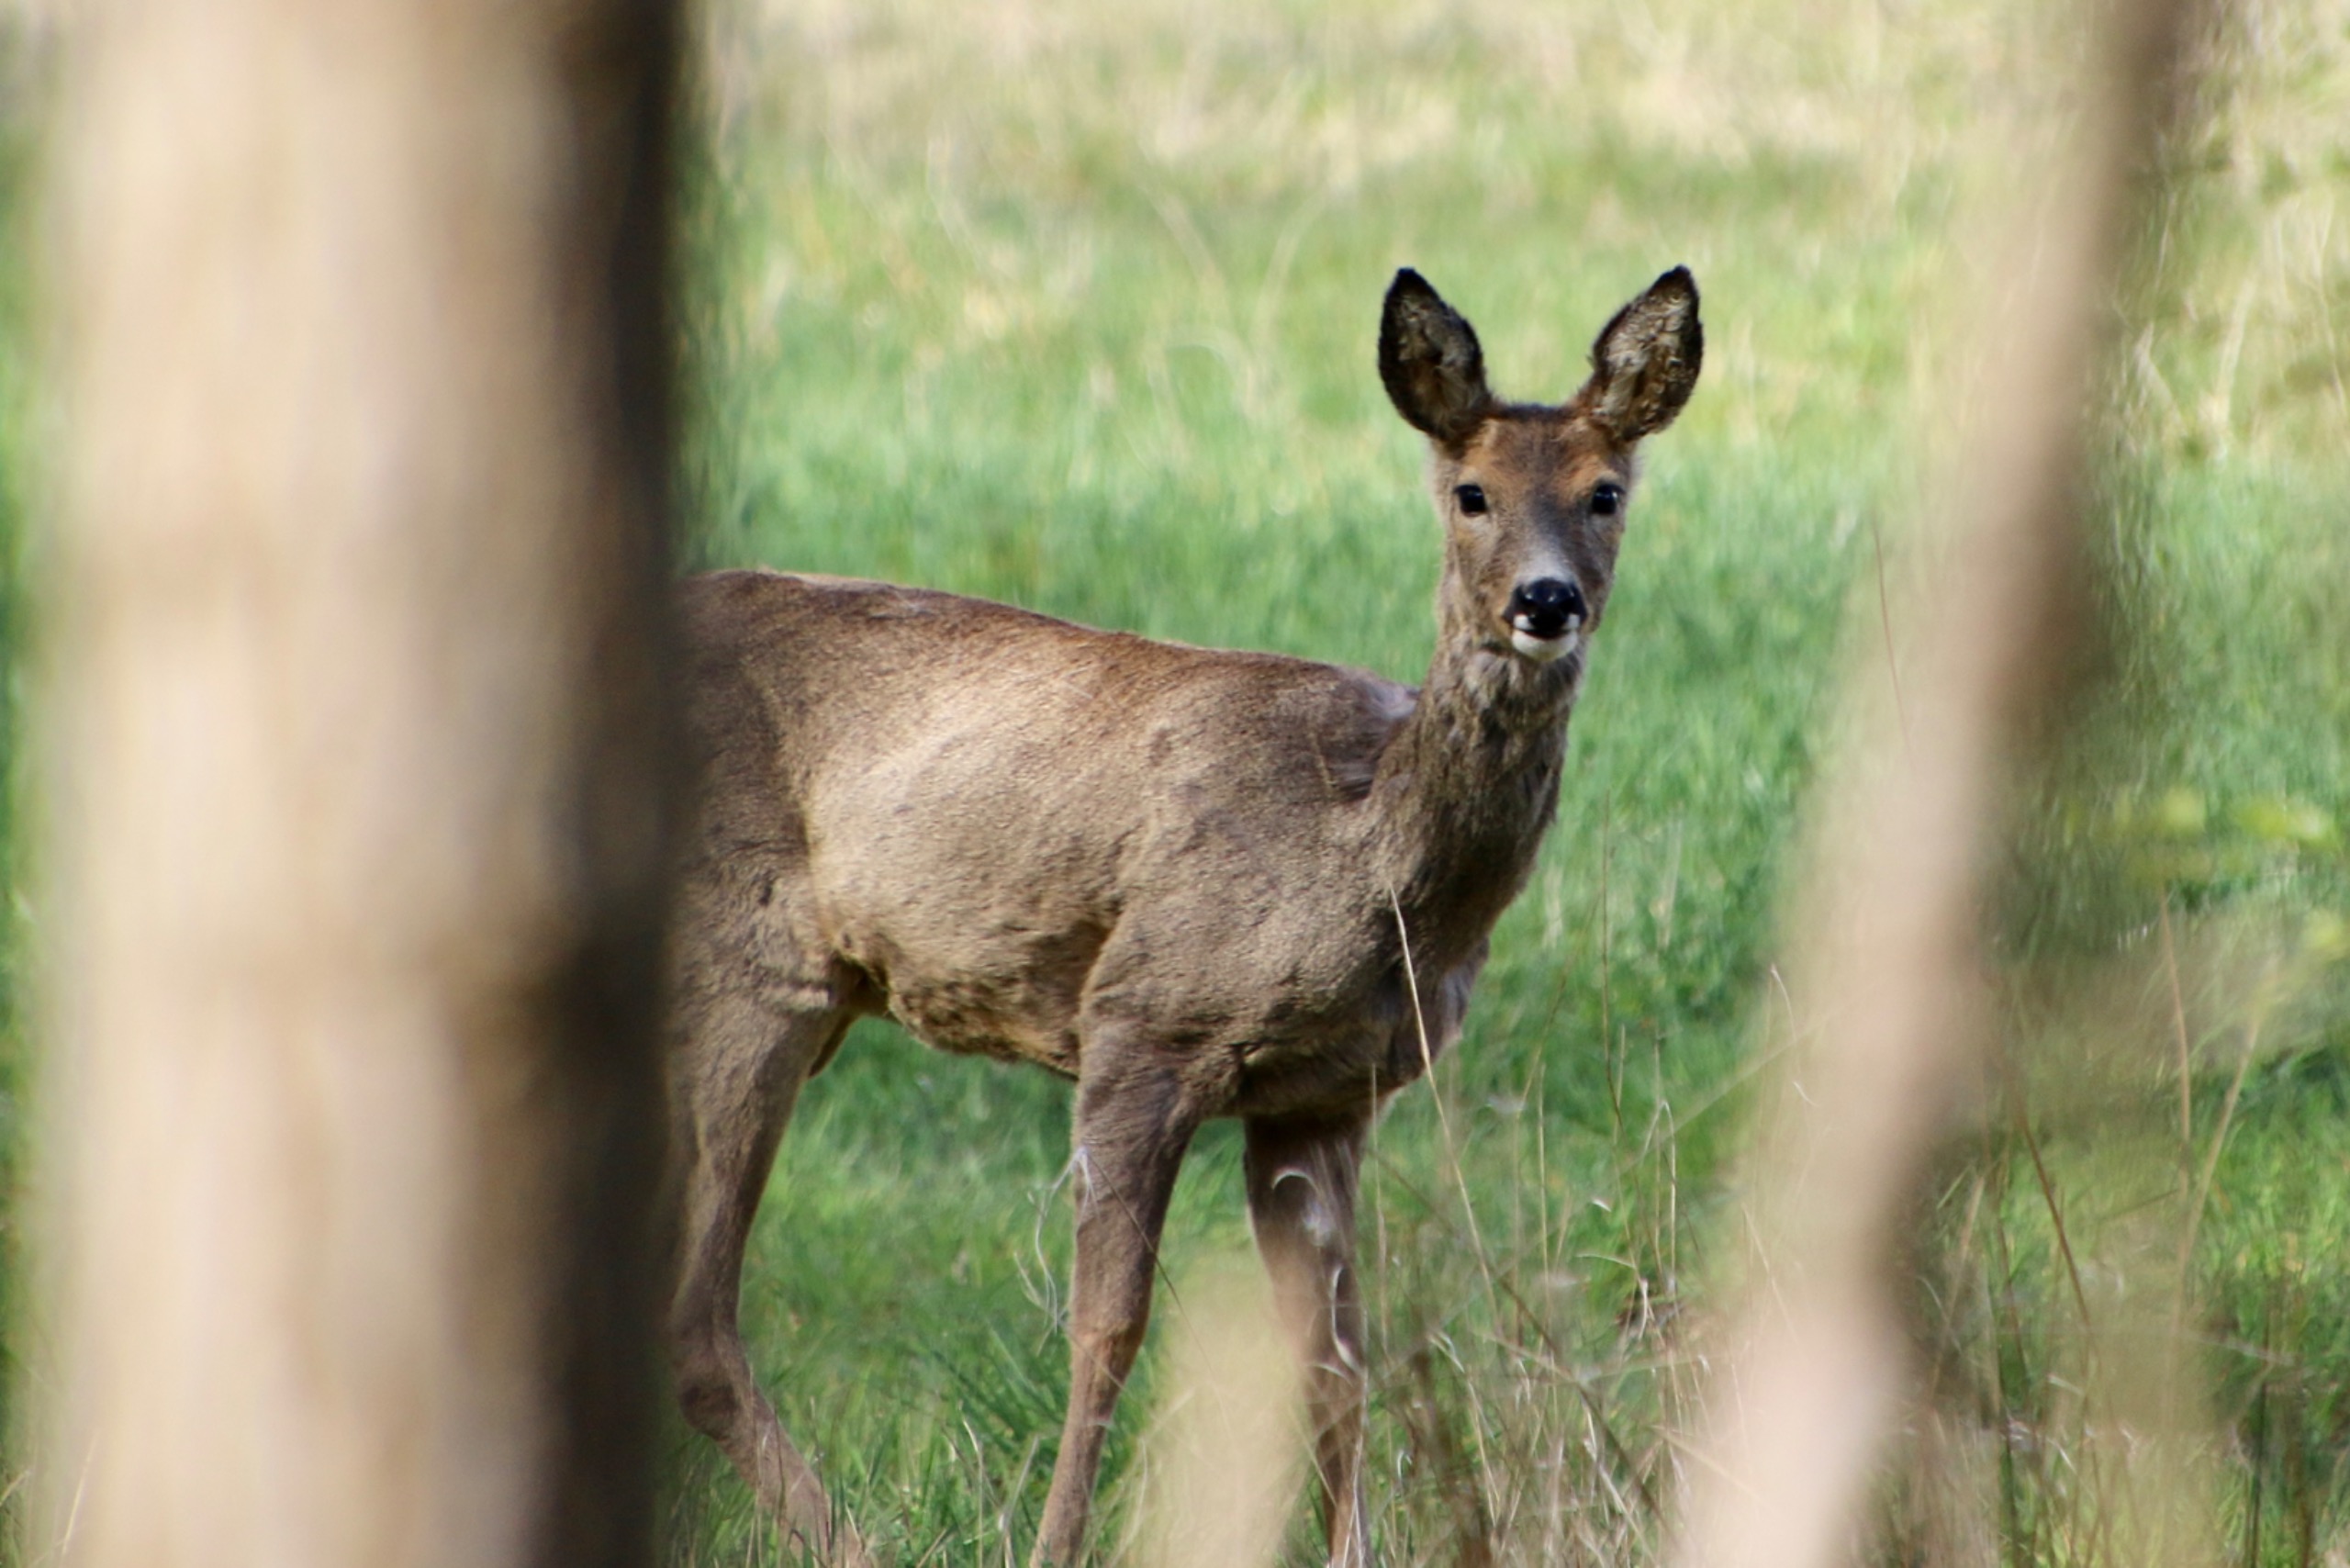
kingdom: Animalia
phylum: Chordata
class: Mammalia
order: Artiodactyla
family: Cervidae
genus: Capreolus
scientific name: Capreolus capreolus
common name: Rådyr
